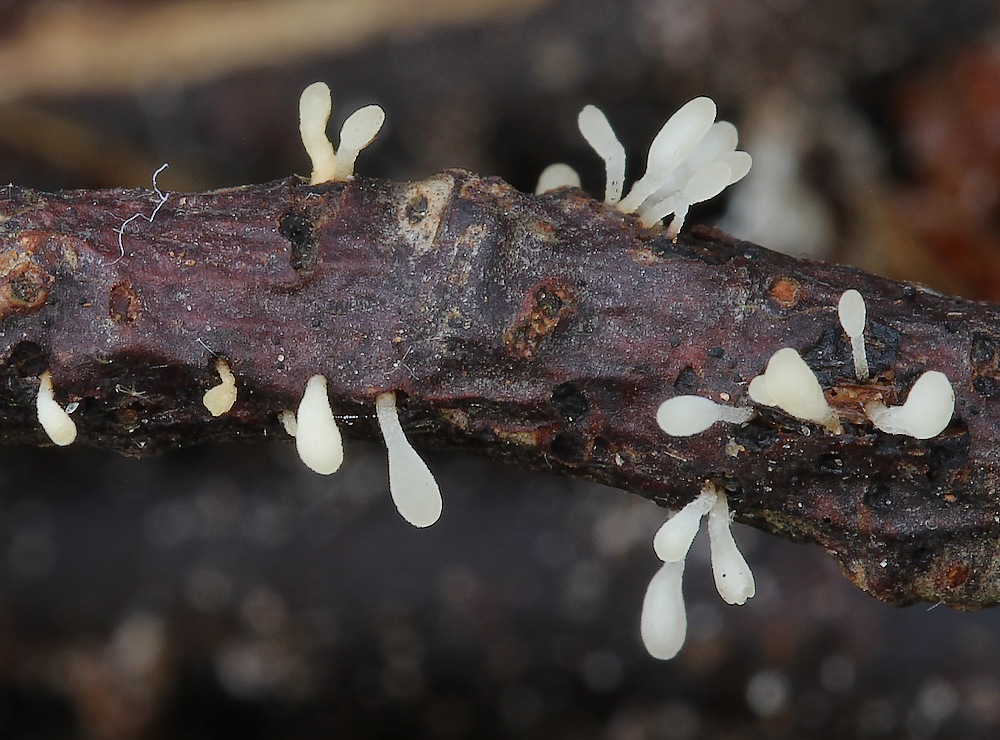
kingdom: Fungi
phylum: Basidiomycota
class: Agaricomycetes
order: Agaricales
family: Typhulaceae
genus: Typhula
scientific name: Typhula spathulata
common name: aske-trådkølle
